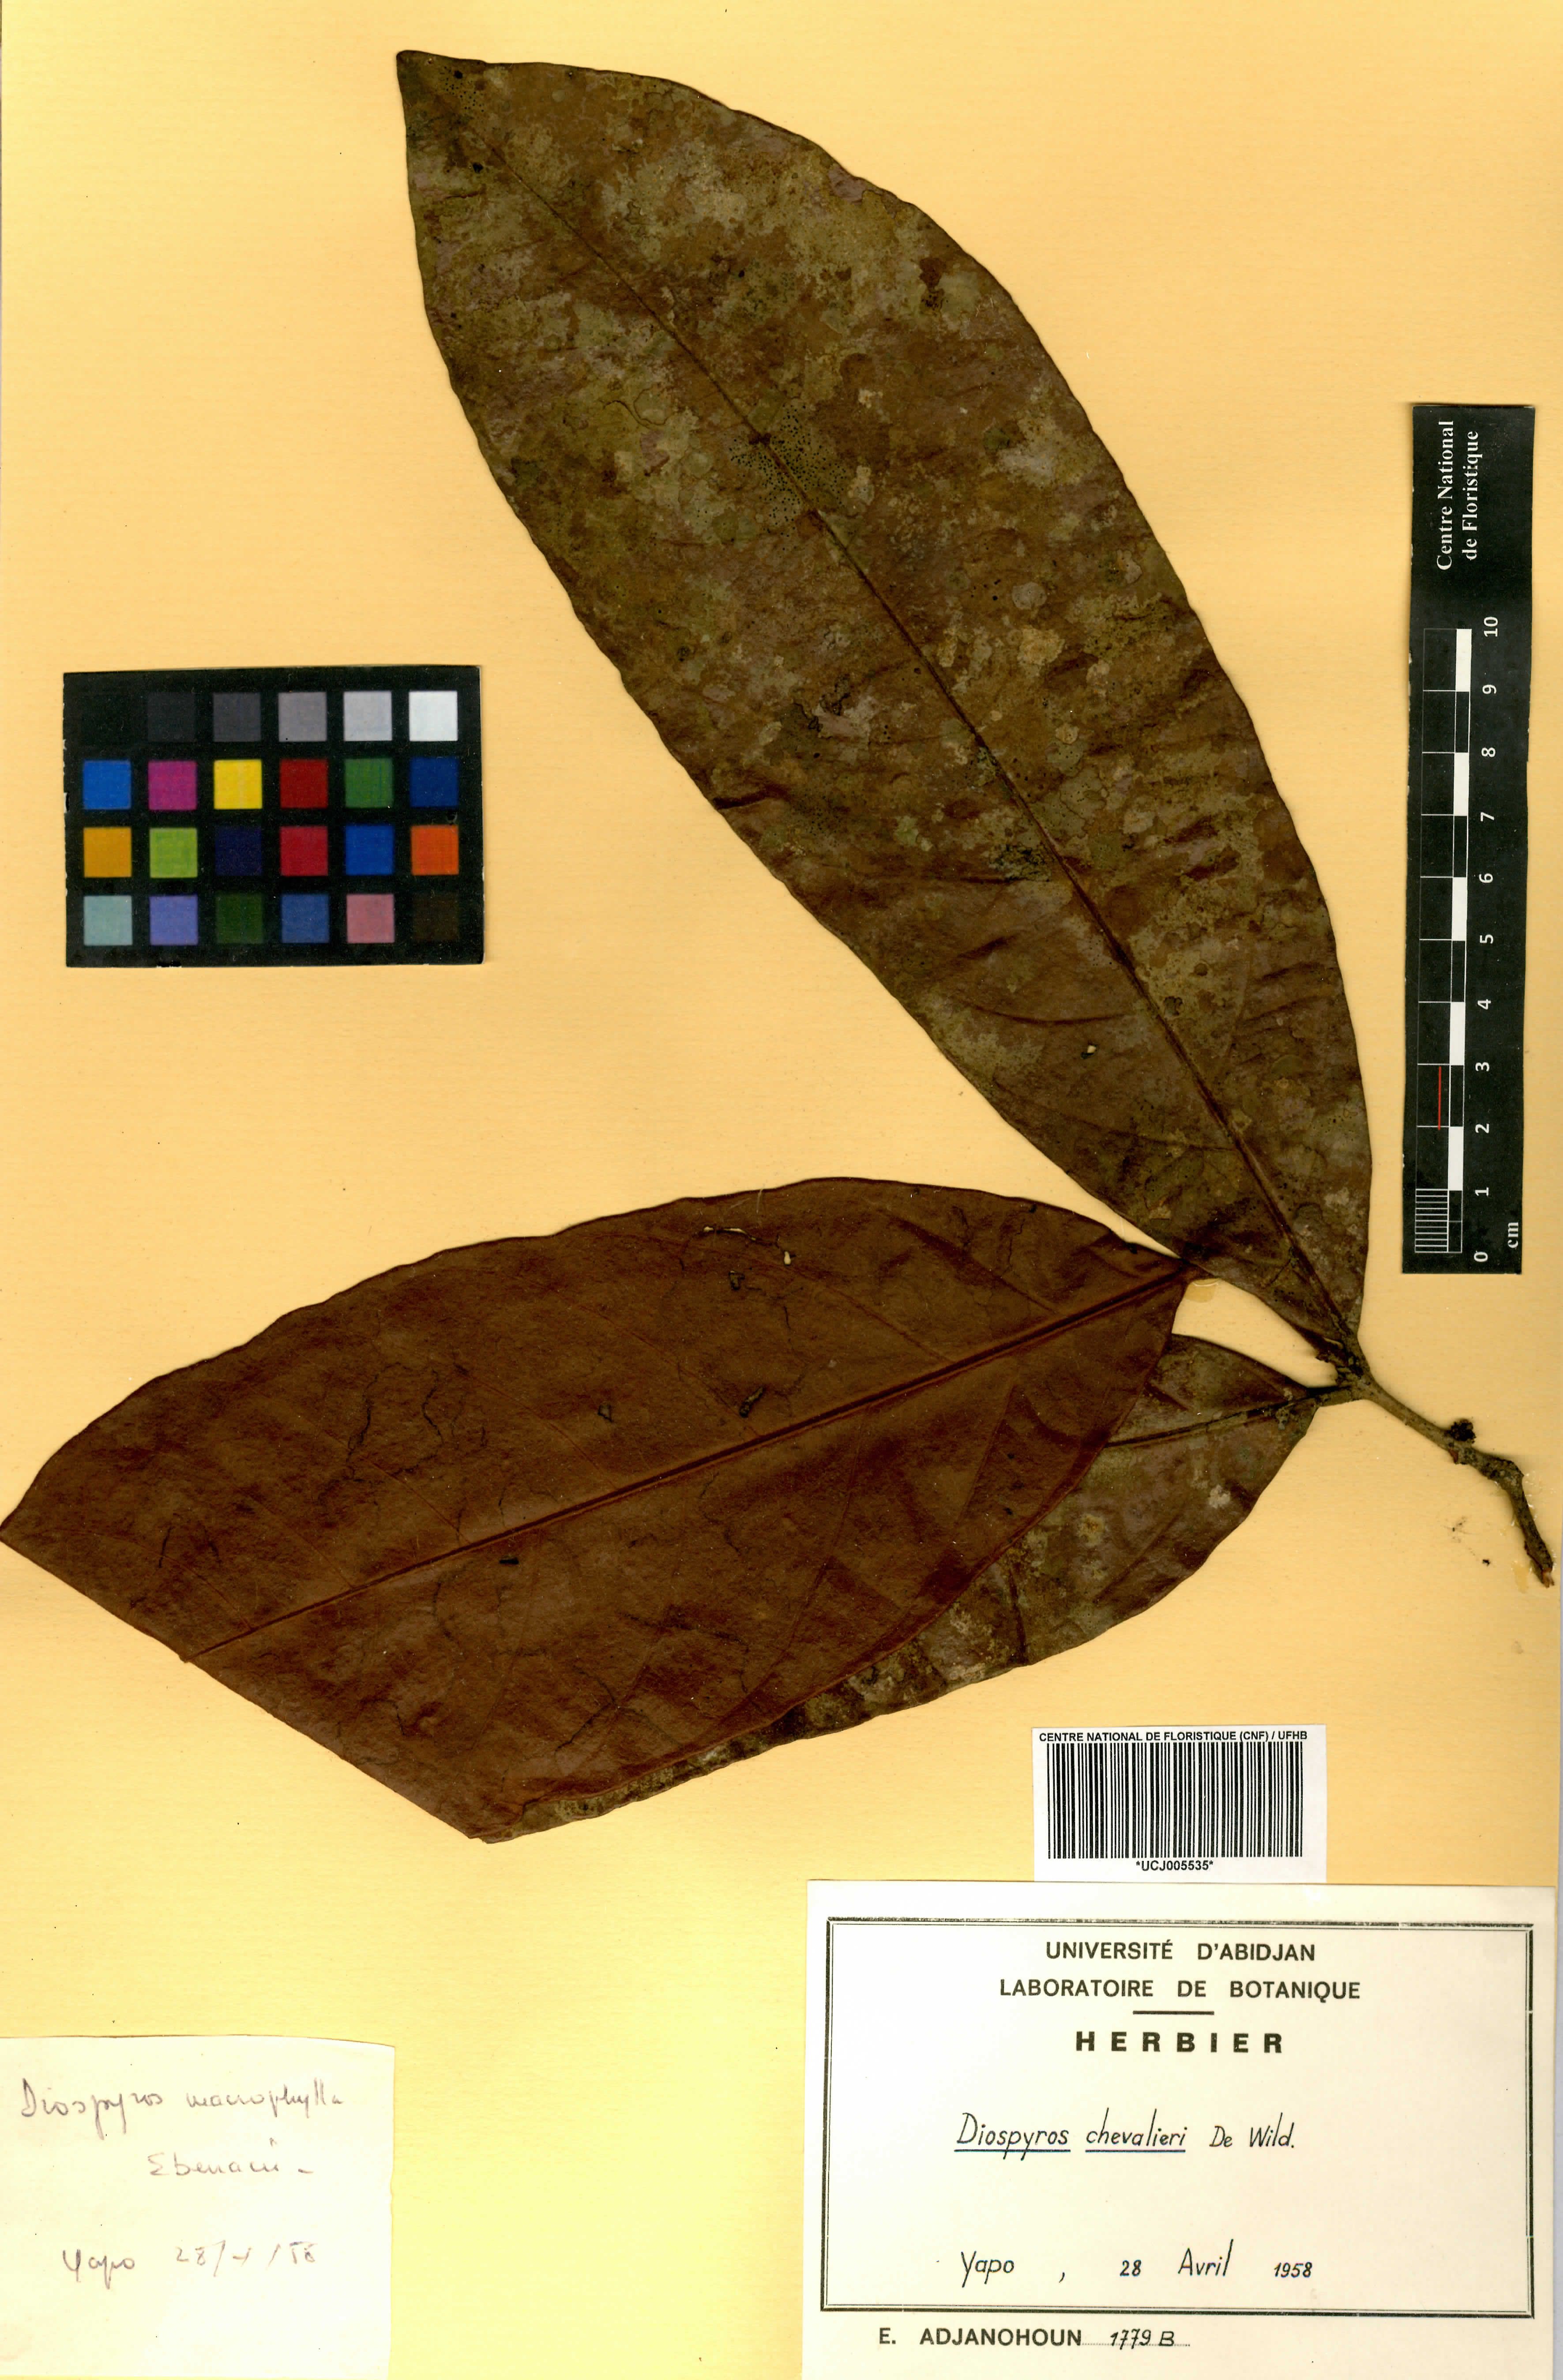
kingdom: Plantae
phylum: Tracheophyta
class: Magnoliopsida
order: Ericales
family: Ebenaceae
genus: Diospyros
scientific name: Diospyros chevalieri
